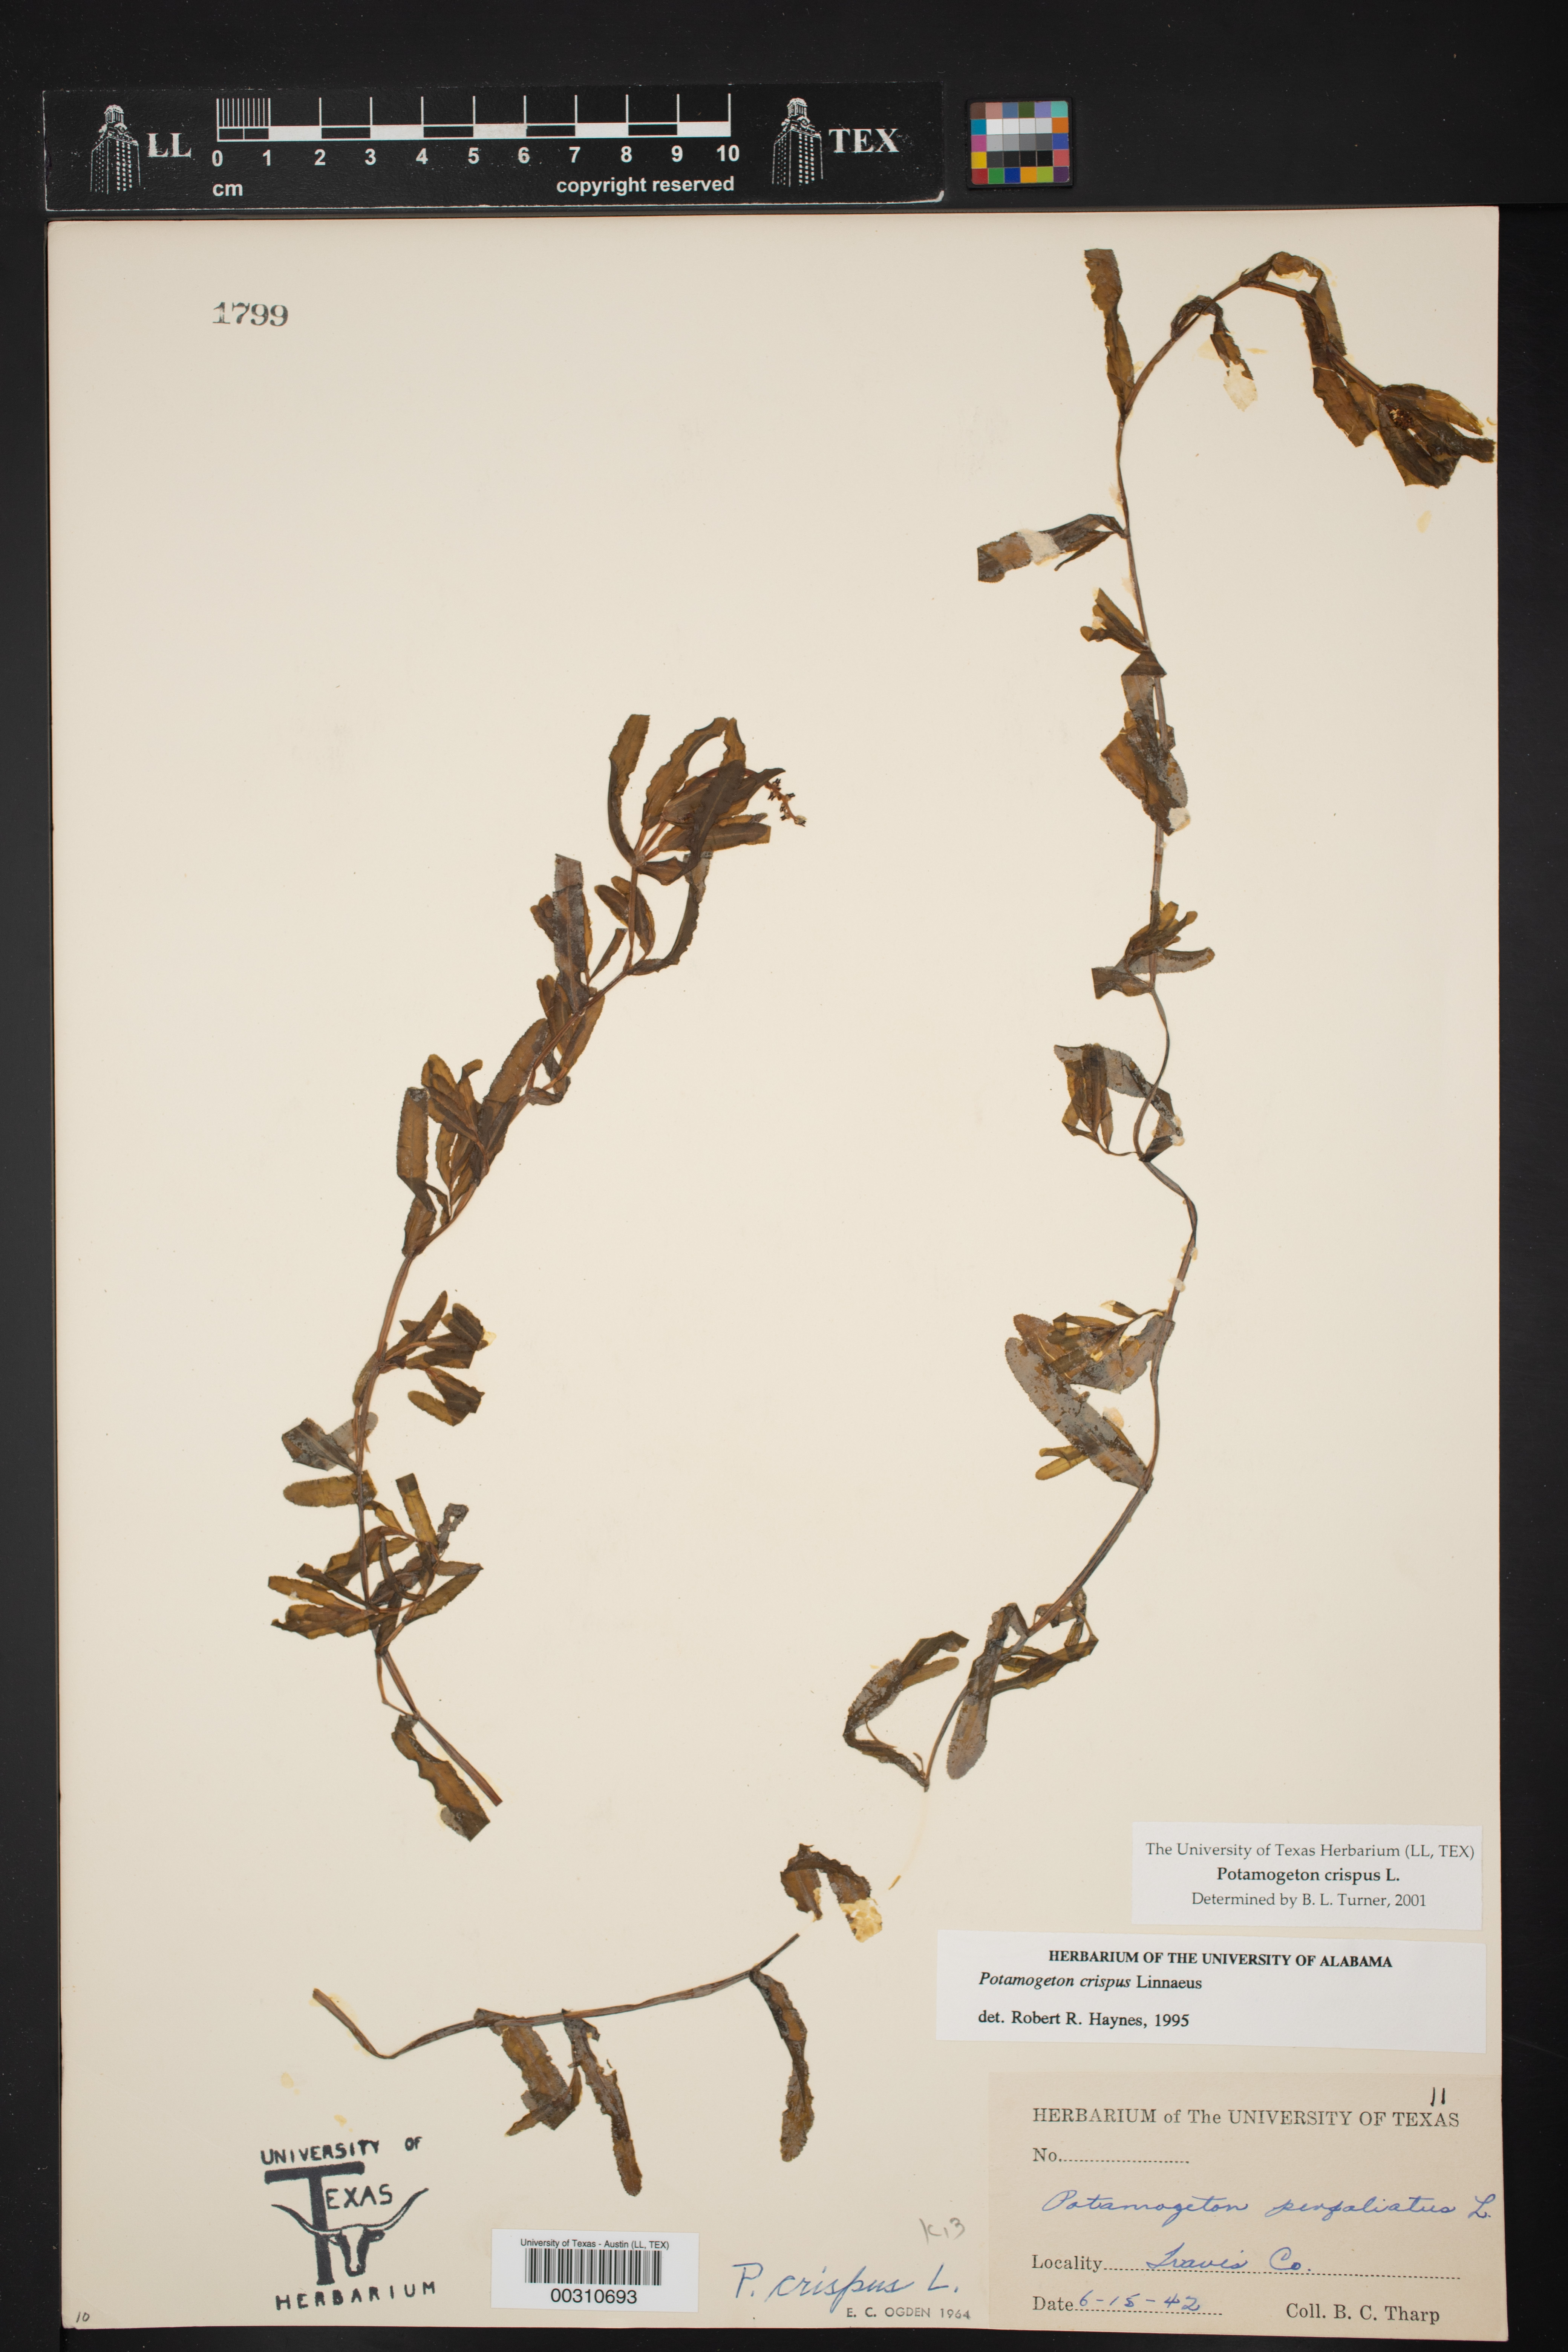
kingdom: Plantae
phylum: Tracheophyta
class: Liliopsida
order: Alismatales
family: Potamogetonaceae
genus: Potamogeton
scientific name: Potamogeton crispus
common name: Curled pondweed
